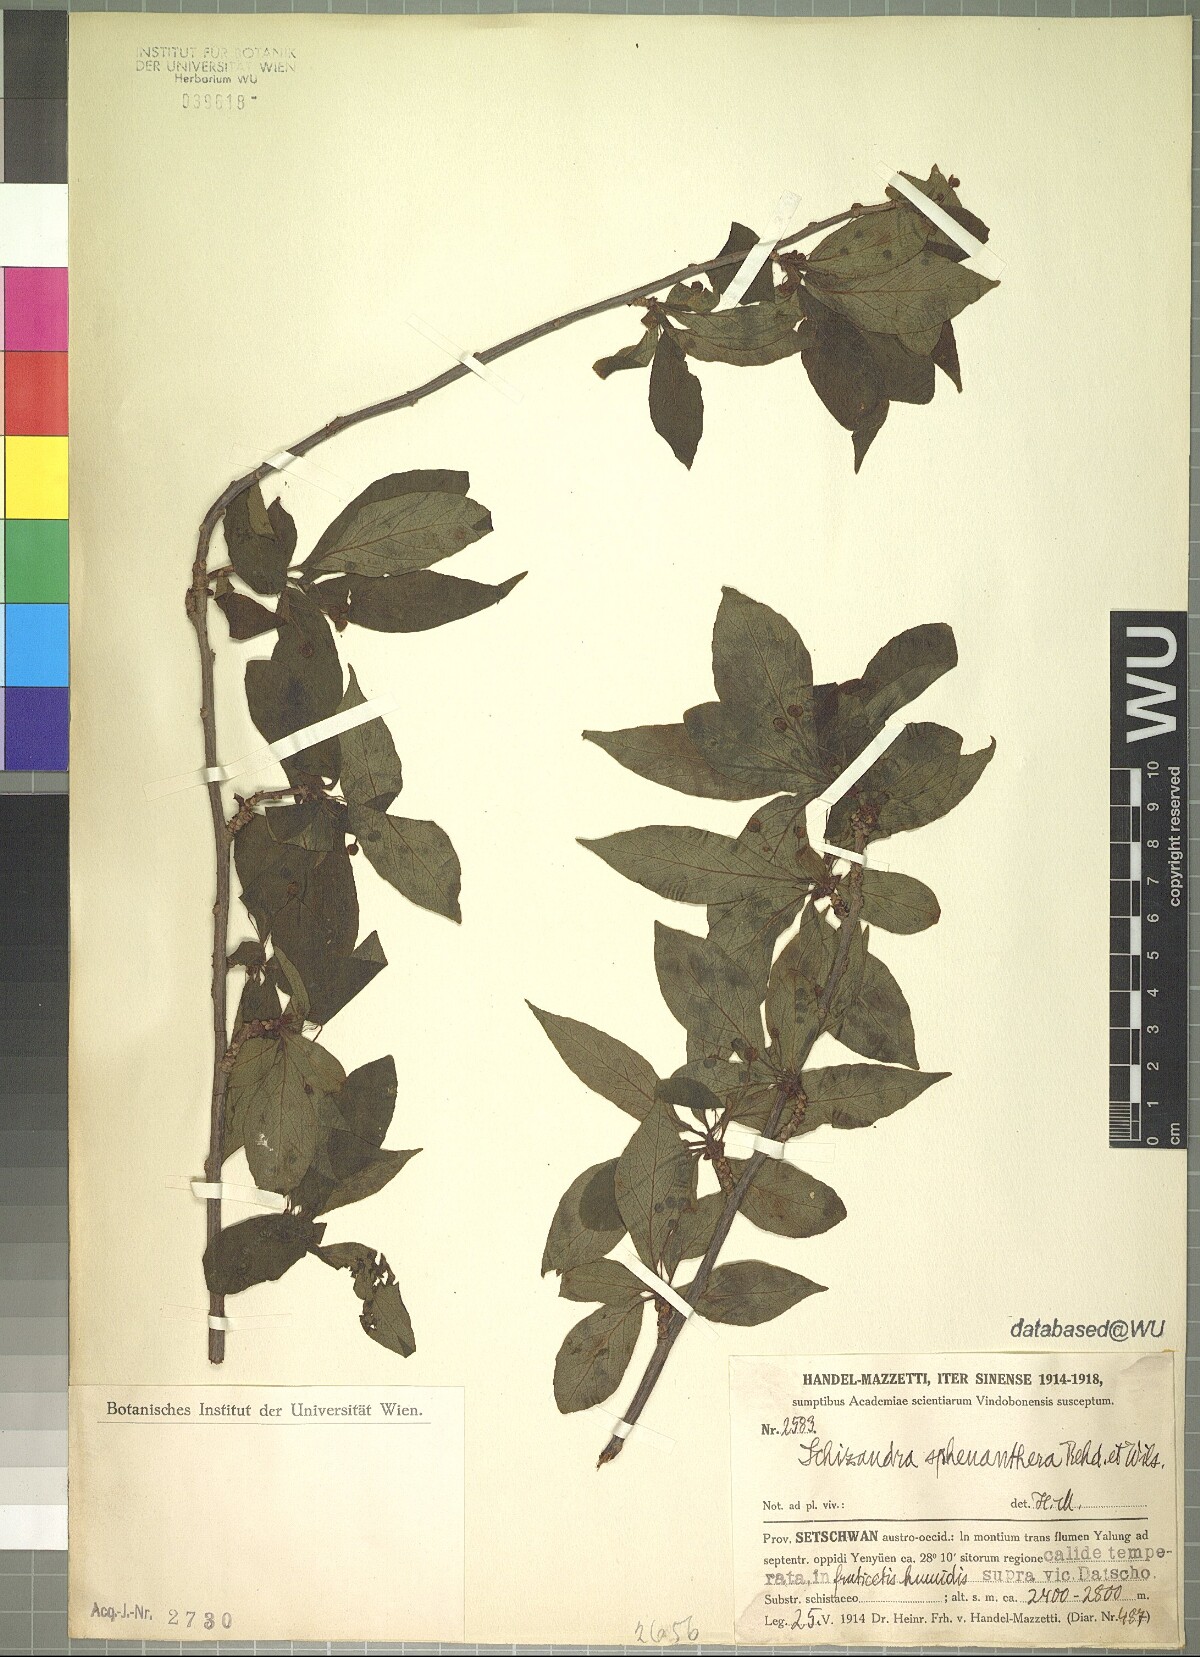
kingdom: Plantae
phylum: Tracheophyta
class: Magnoliopsida
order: Austrobaileyales
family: Schisandraceae
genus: Schisandra
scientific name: Schisandra sphenanthera
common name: Lemonwood
